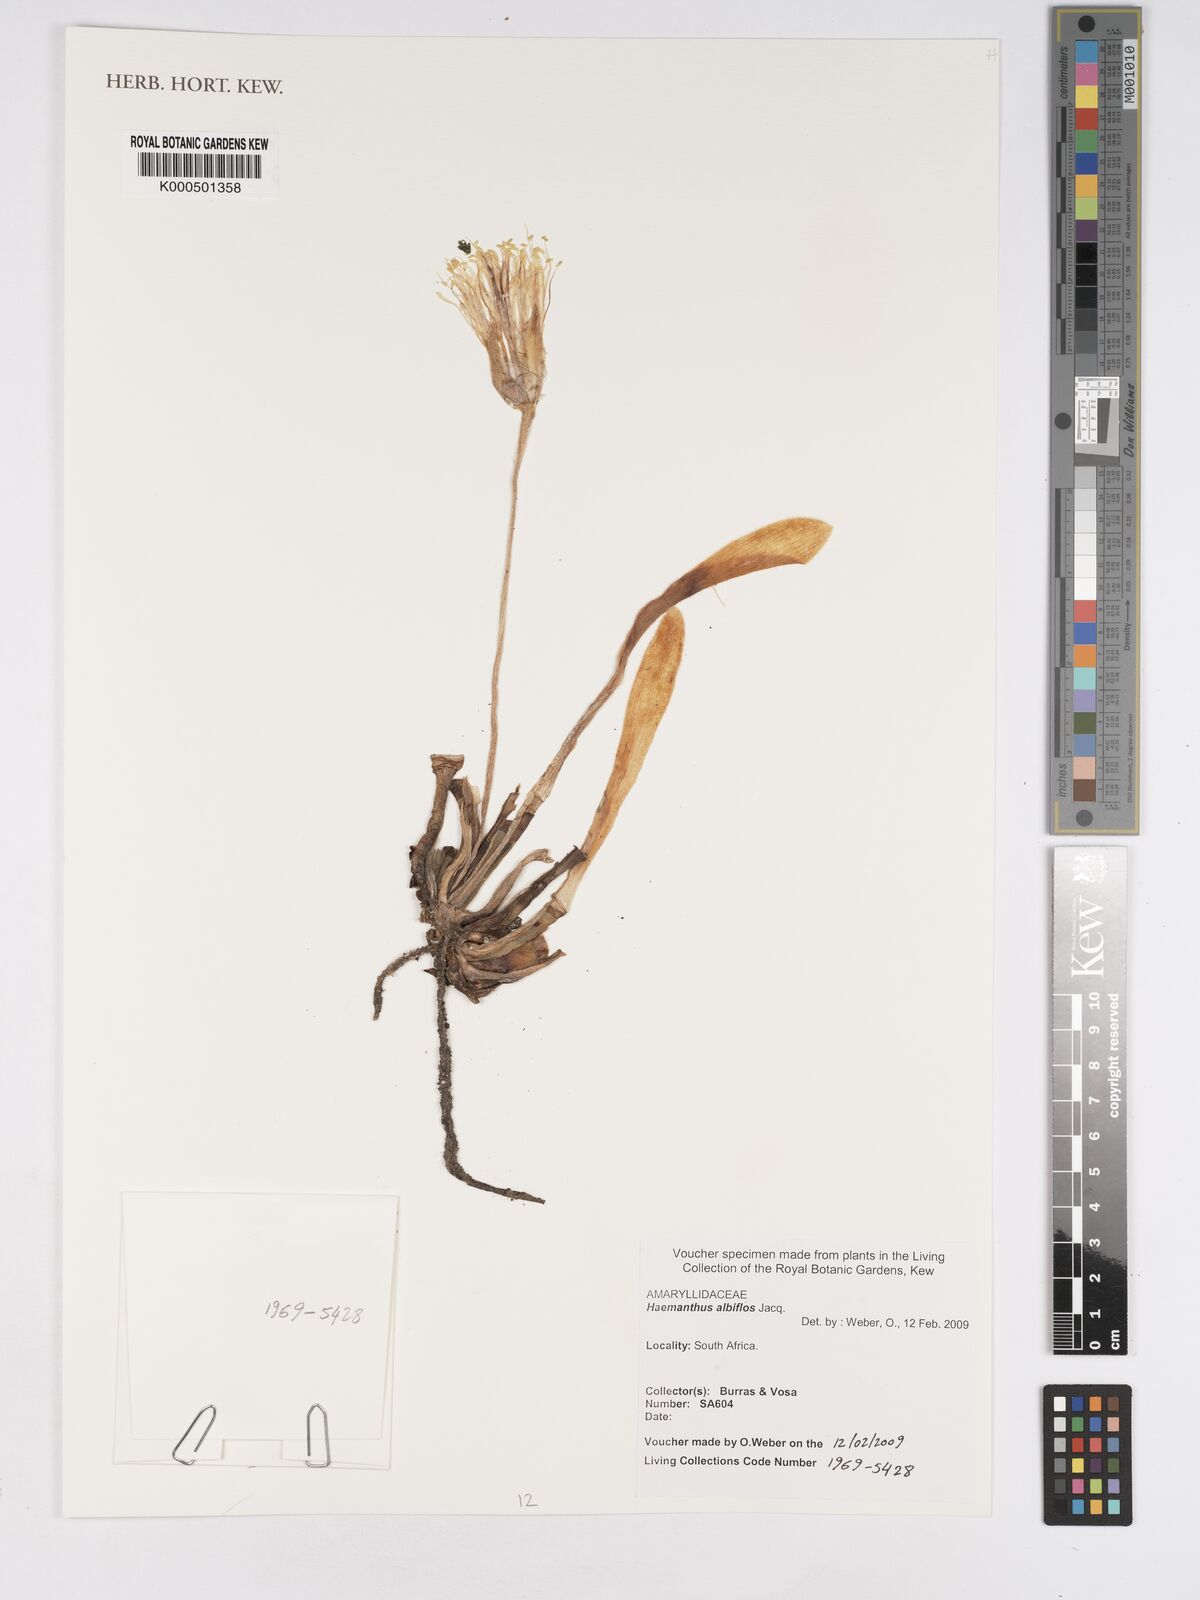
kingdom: Plantae
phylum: Tracheophyta
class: Liliopsida
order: Asparagales
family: Amaryllidaceae
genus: Haemanthus
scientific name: Haemanthus albiflos
